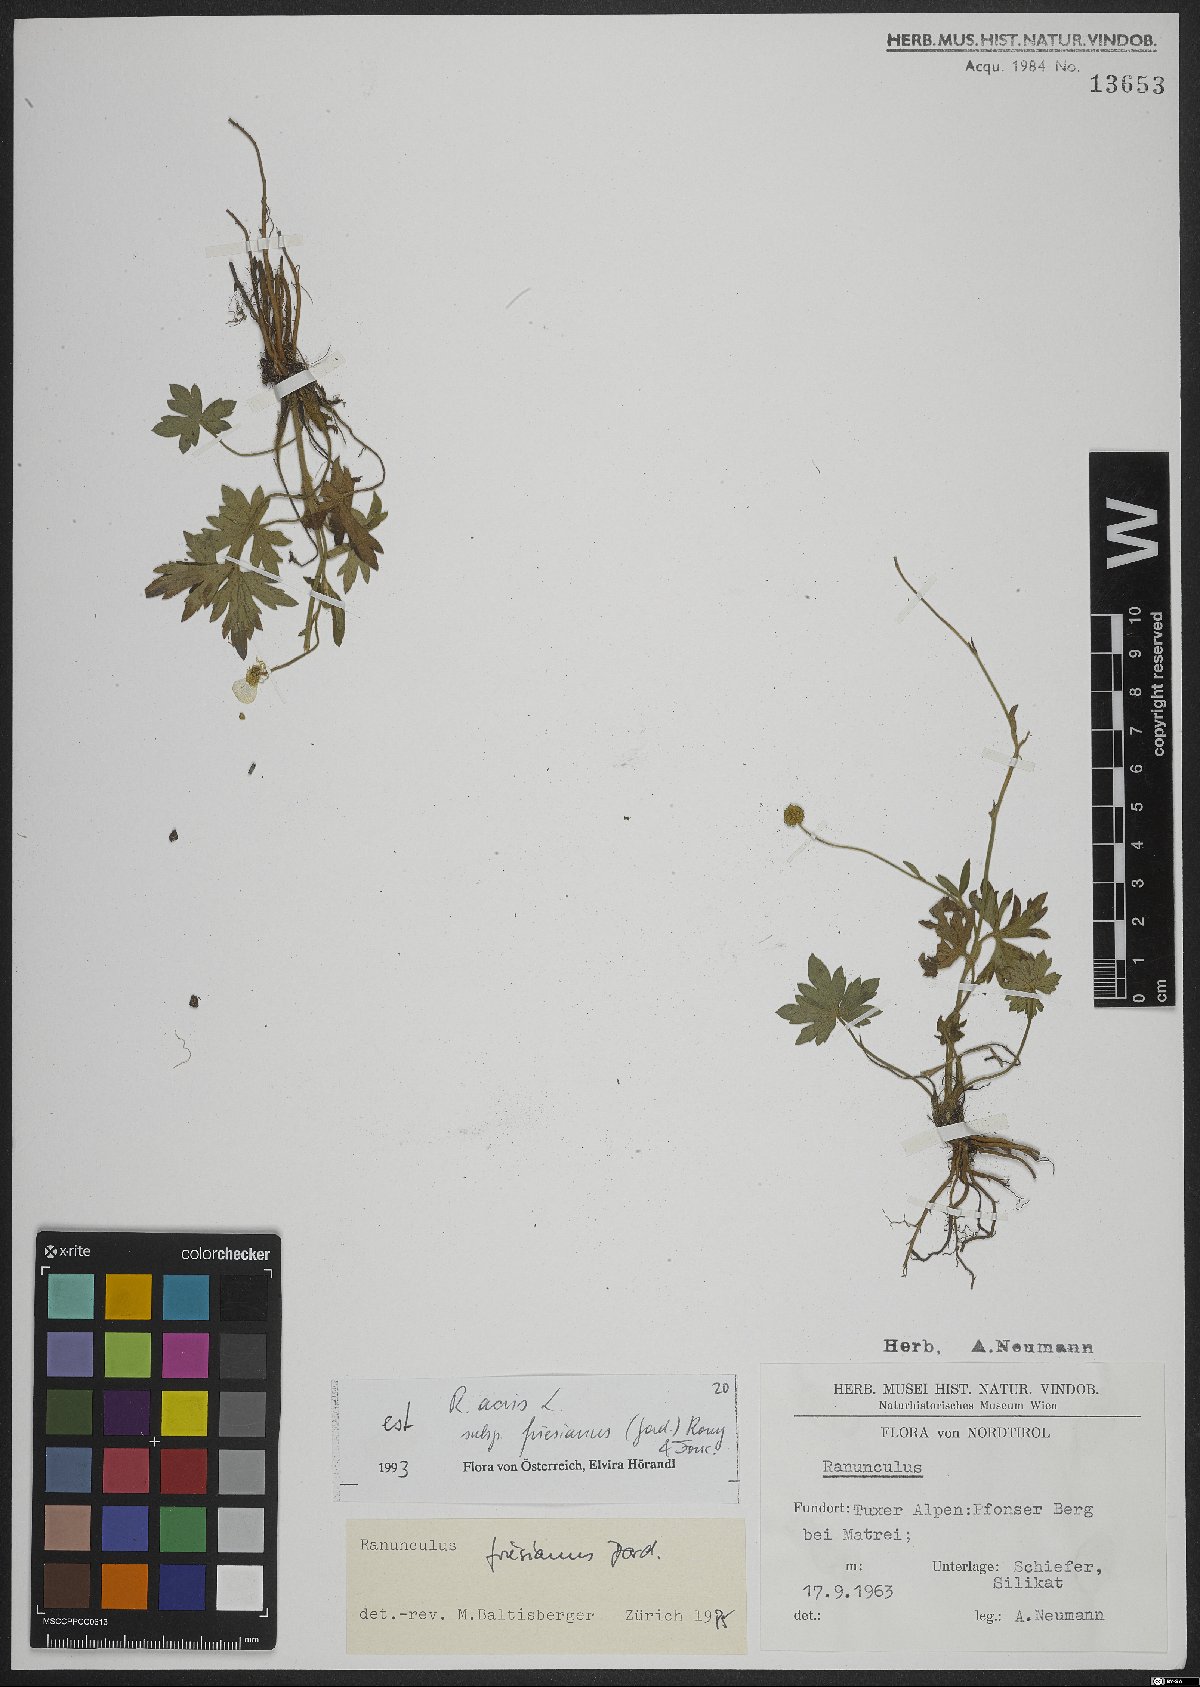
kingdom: Plantae
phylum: Tracheophyta
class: Magnoliopsida
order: Ranunculales
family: Ranunculaceae
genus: Ranunculus
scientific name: Ranunculus acris
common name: Meadow buttercup
